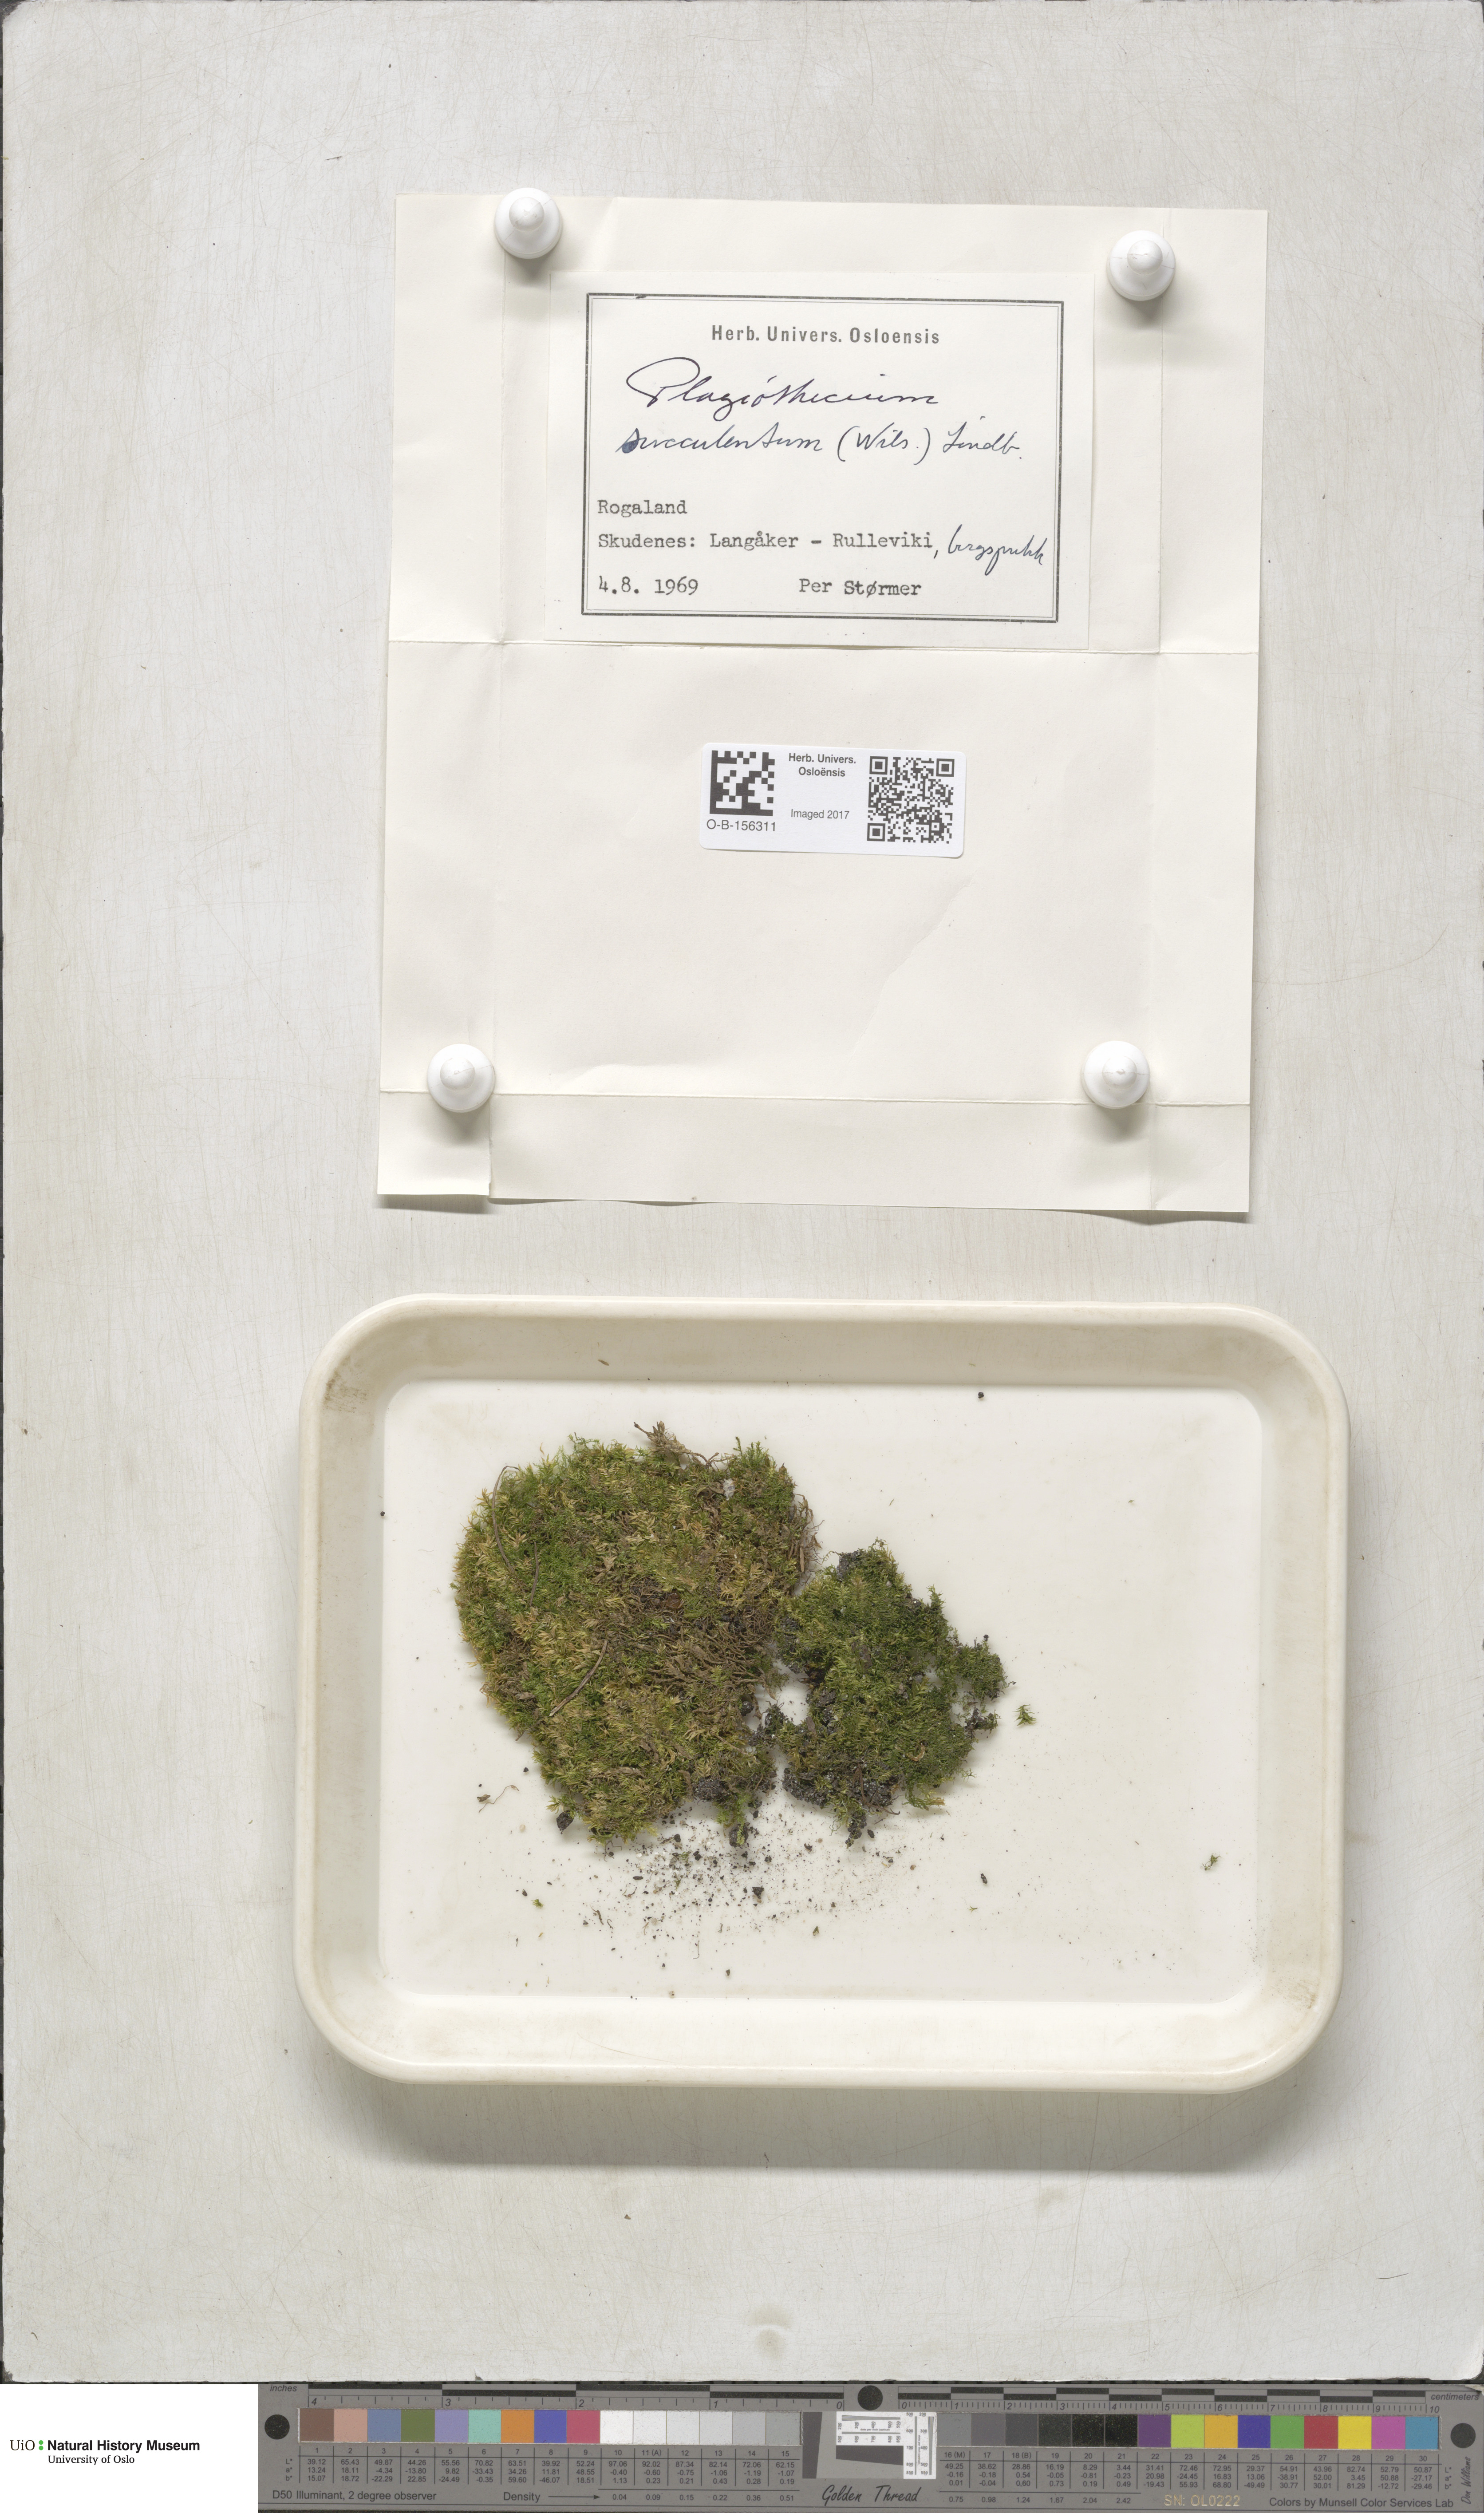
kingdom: Plantae
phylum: Bryophyta
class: Bryopsida
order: Hypnales
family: Plagiotheciaceae
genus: Plagiothecium
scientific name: Plagiothecium nemorale
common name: Woodsy silk-moss
